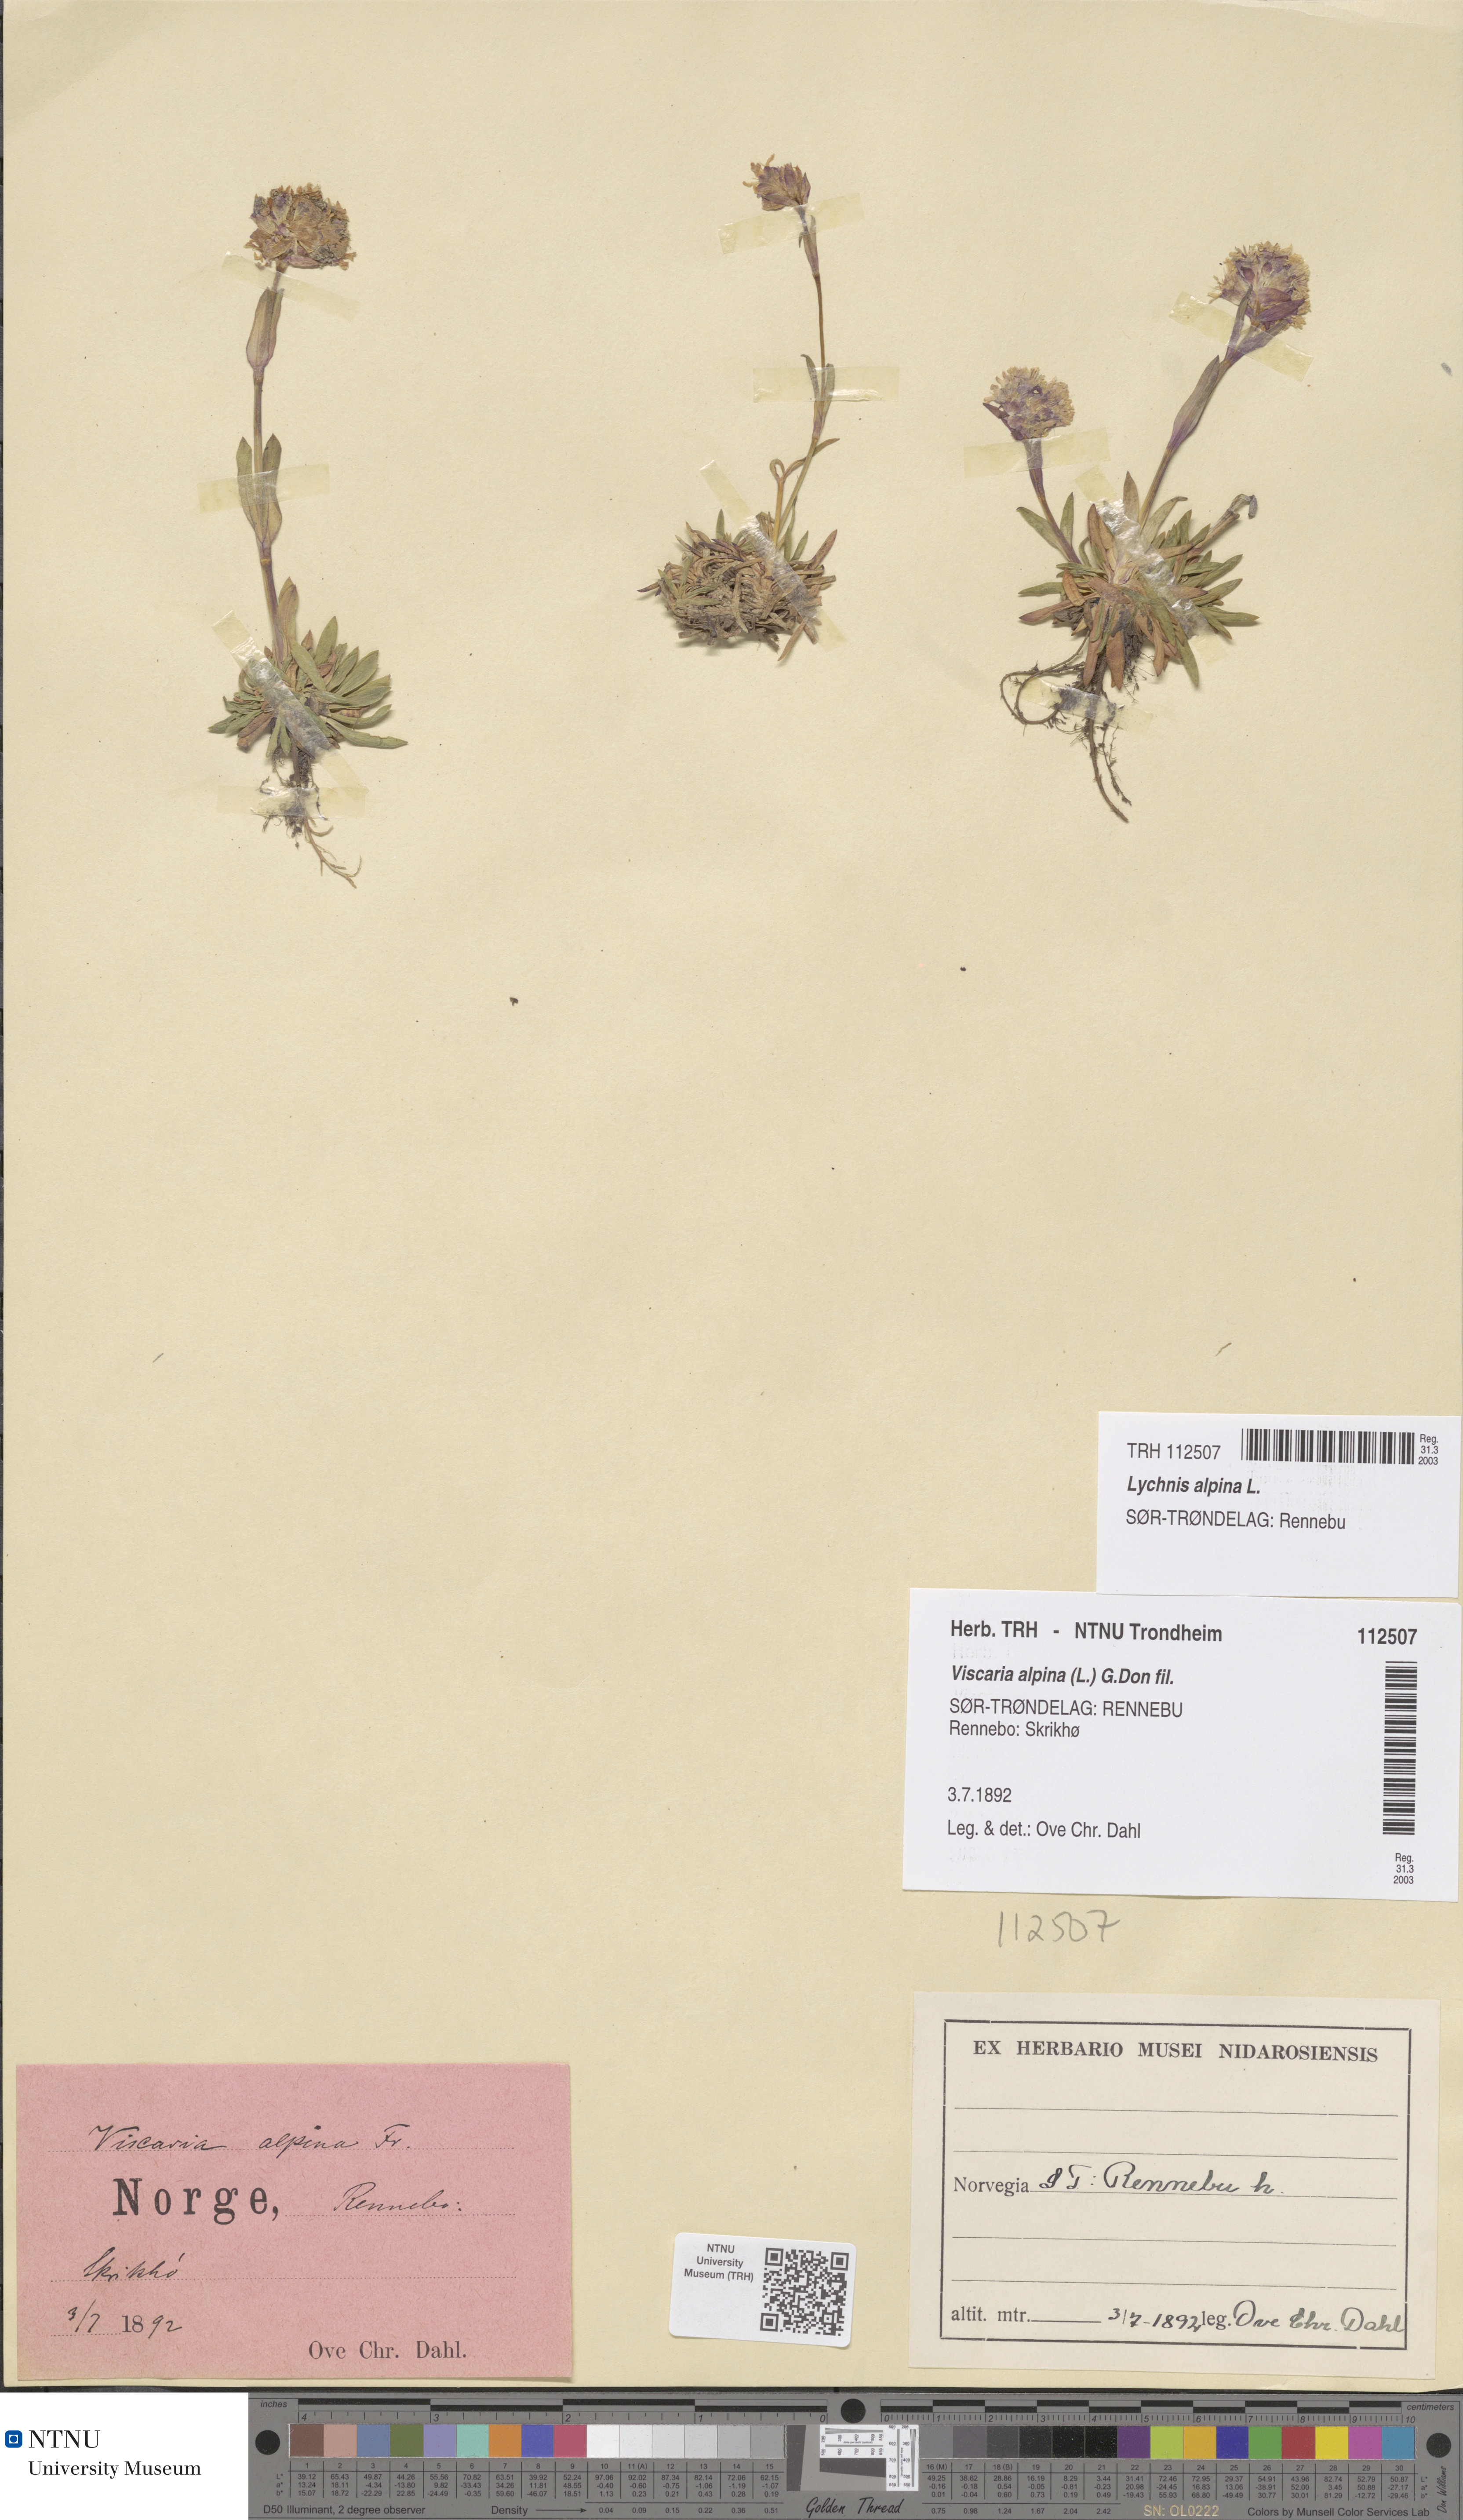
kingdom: Plantae
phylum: Tracheophyta
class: Magnoliopsida
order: Caryophyllales
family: Caryophyllaceae
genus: Viscaria
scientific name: Viscaria alpina
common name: Alpine campion
